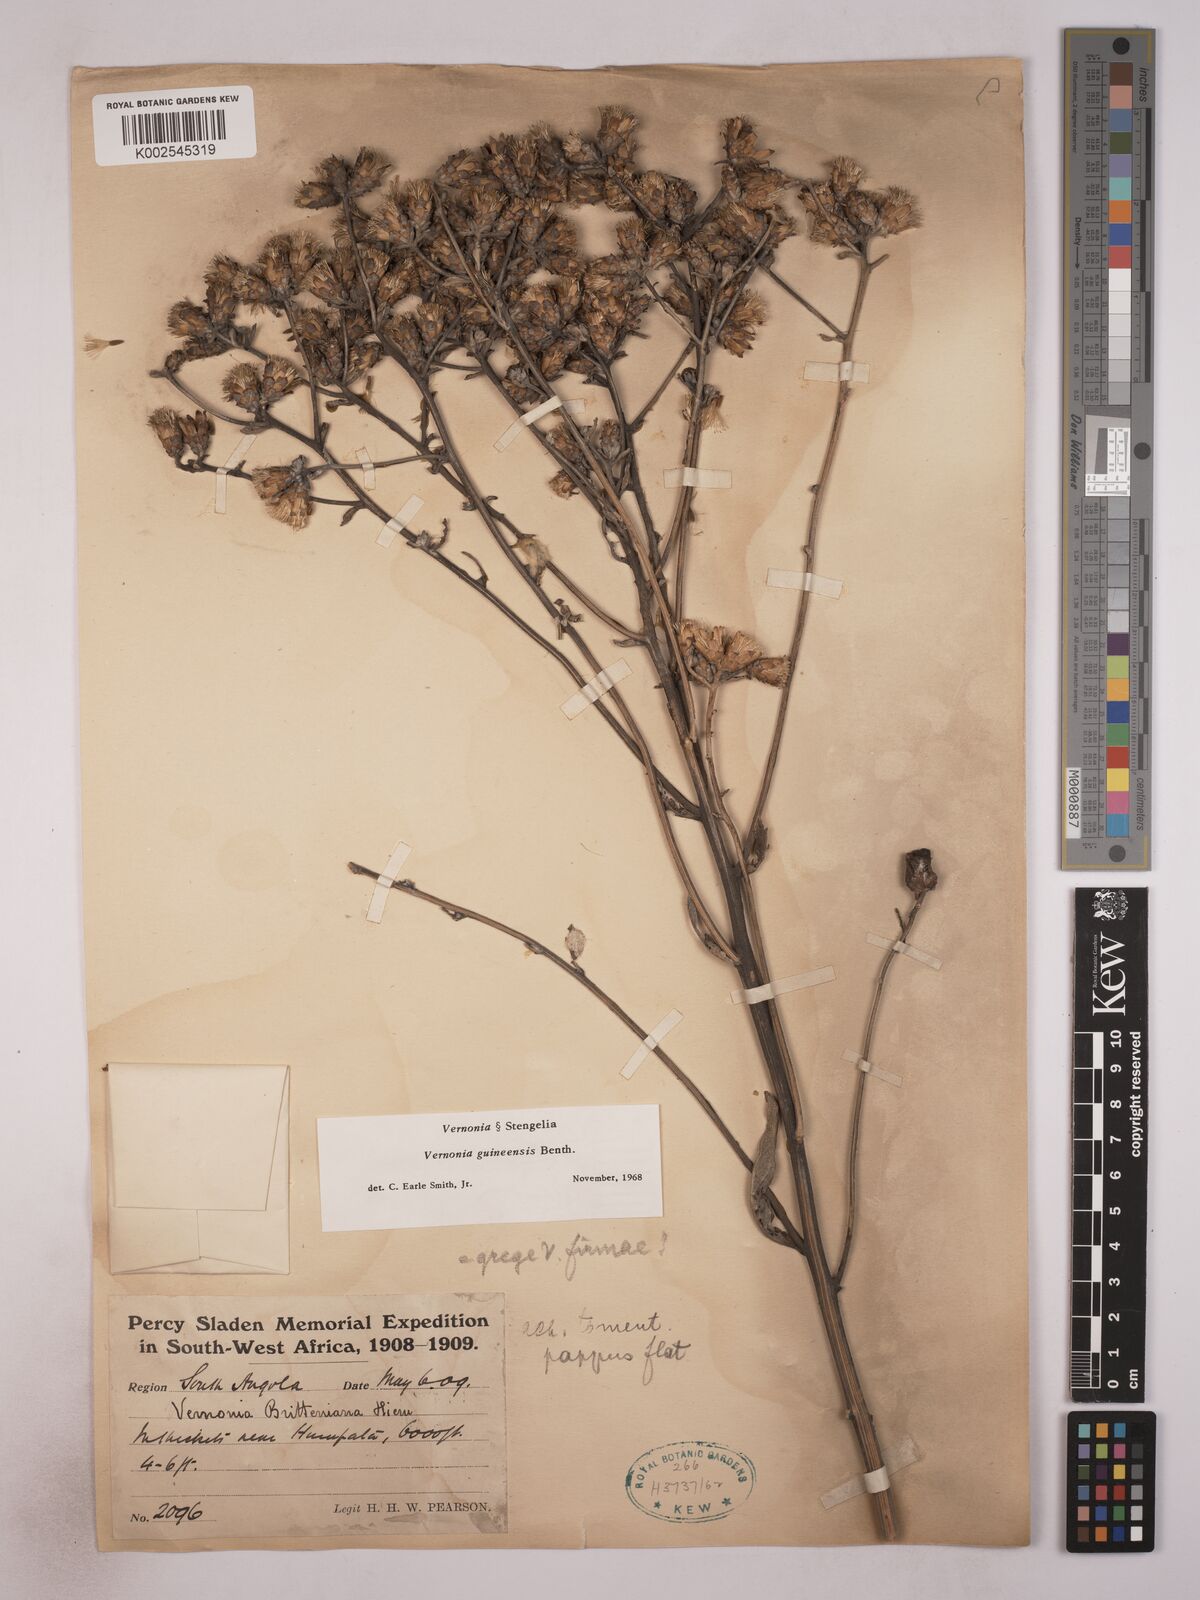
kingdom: Plantae
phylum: Tracheophyta
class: Magnoliopsida
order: Asterales
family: Asteraceae
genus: Vernonia
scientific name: Vernonia britteniana
